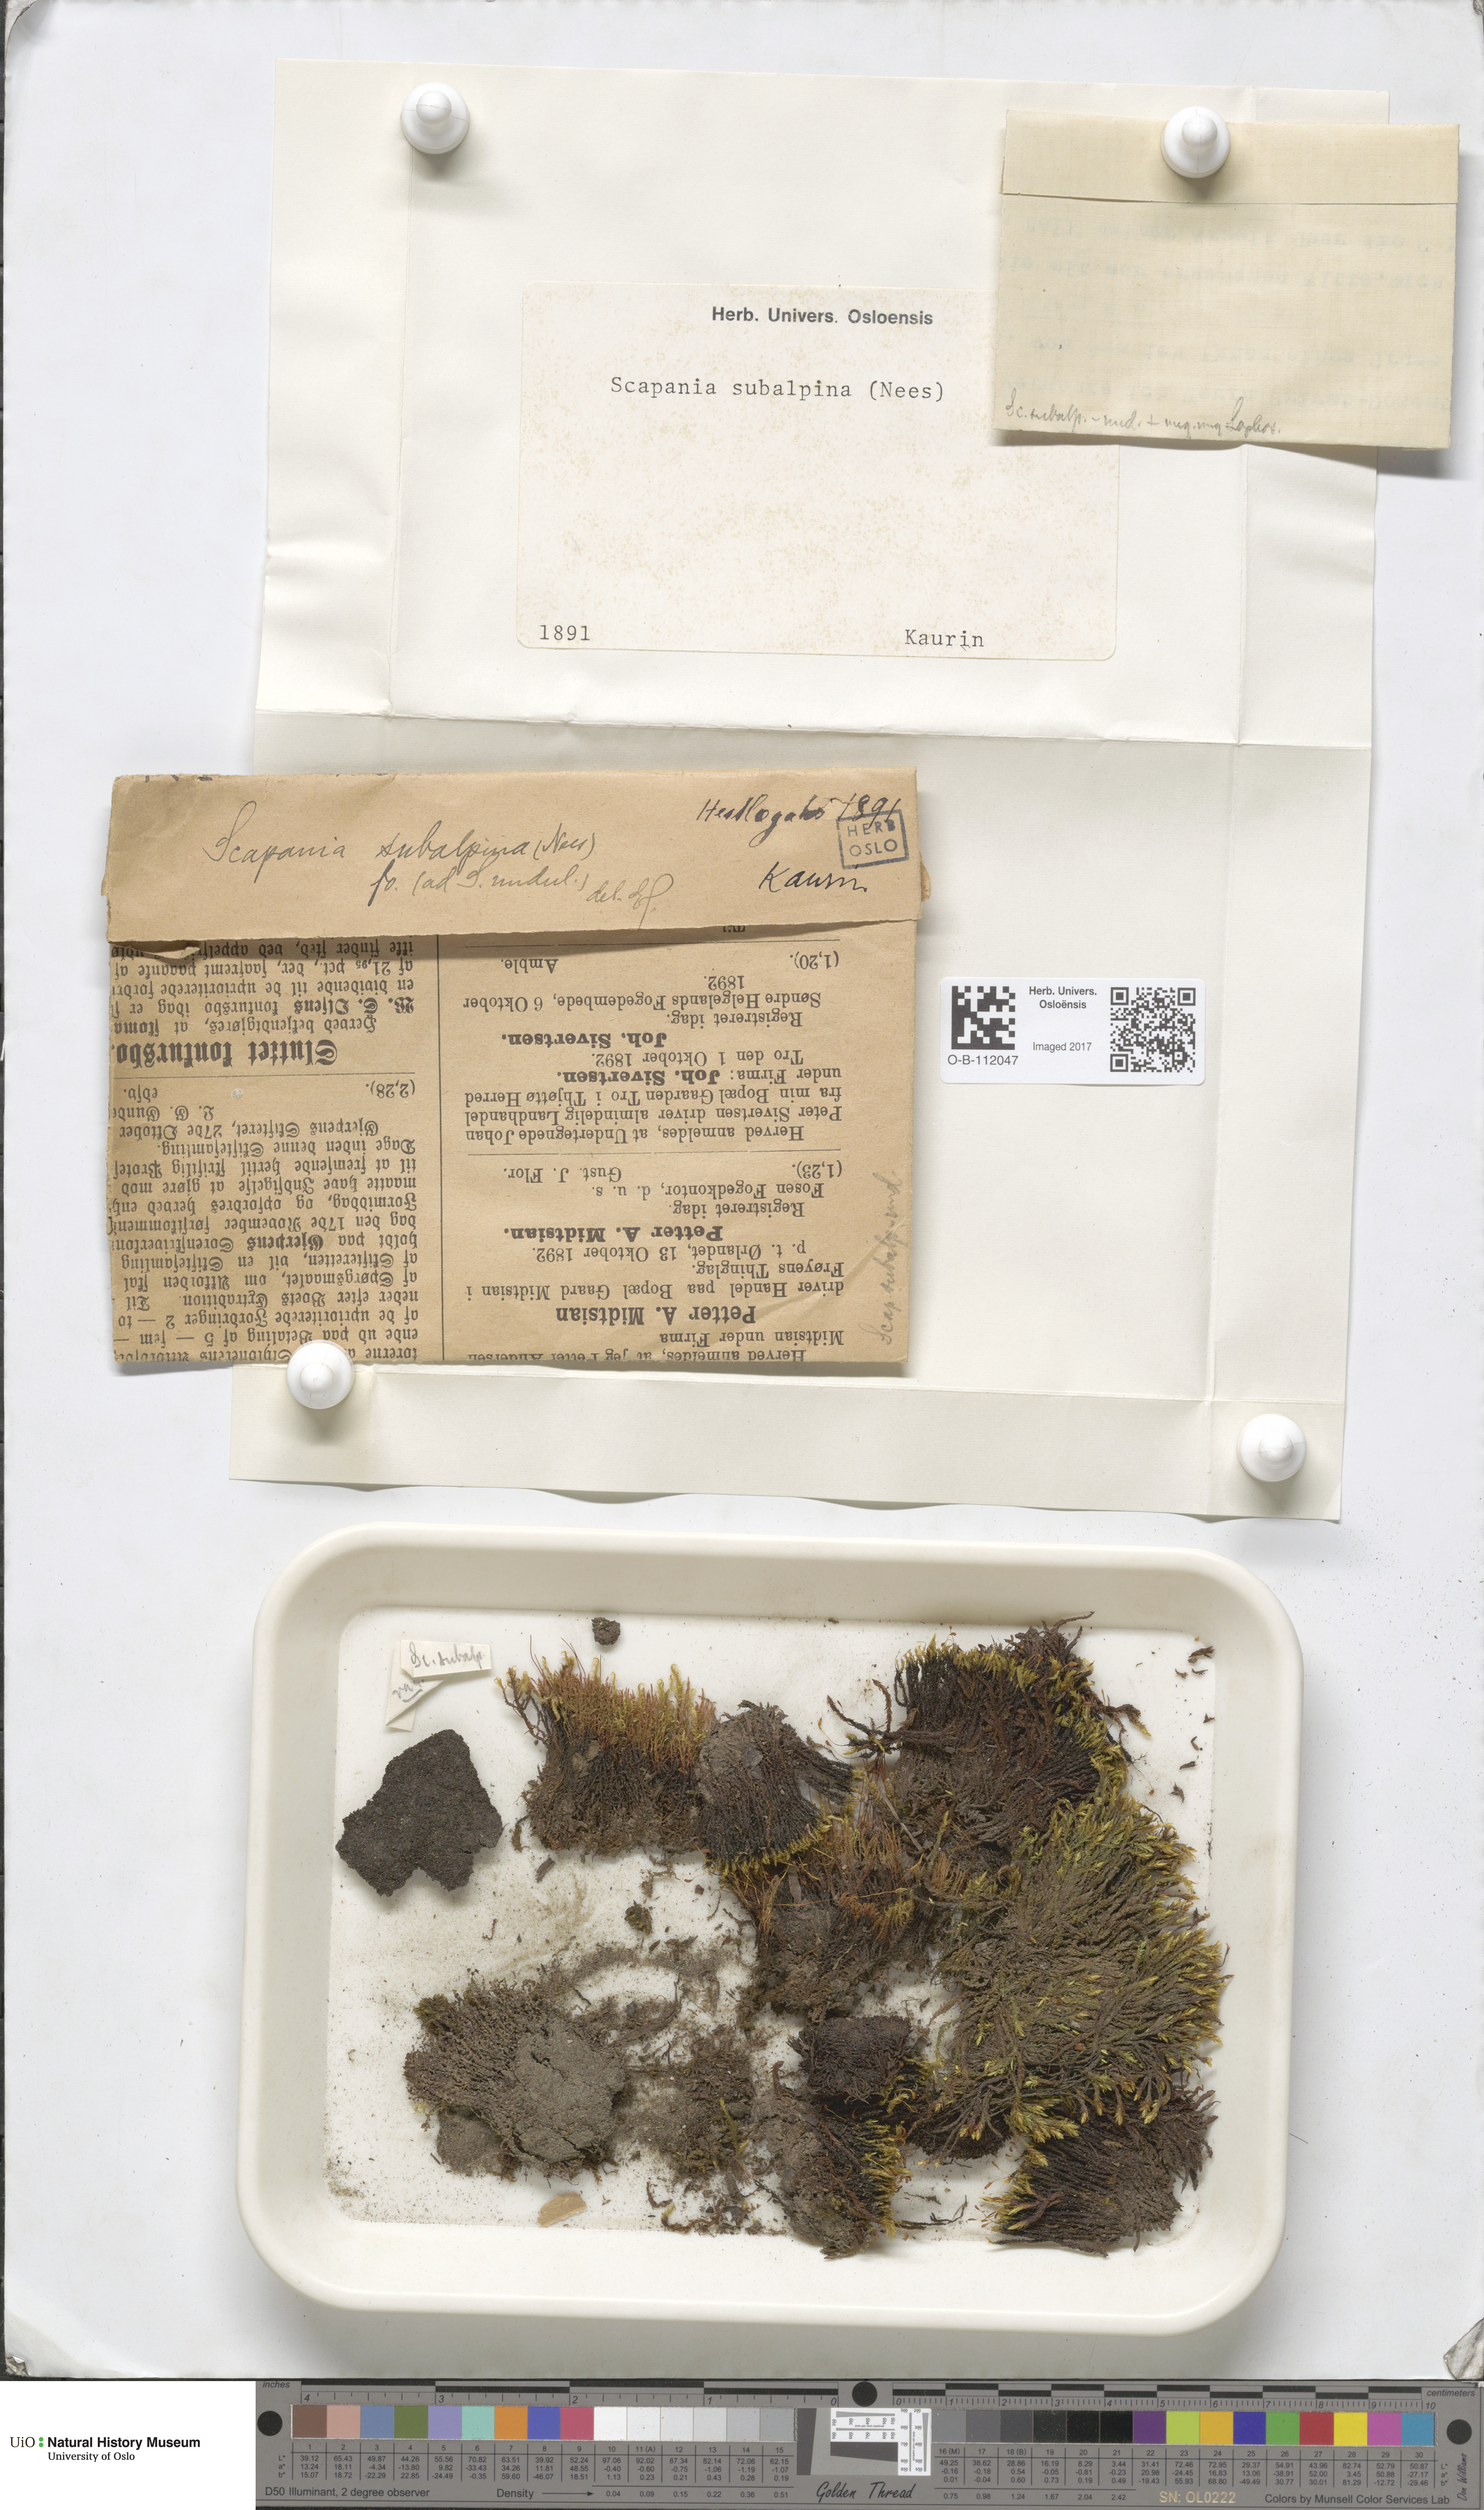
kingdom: Plantae
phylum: Marchantiophyta
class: Jungermanniopsida
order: Jungermanniales
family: Scapaniaceae
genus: Scapania
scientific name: Scapania subalpina
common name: Subalpine earwort
